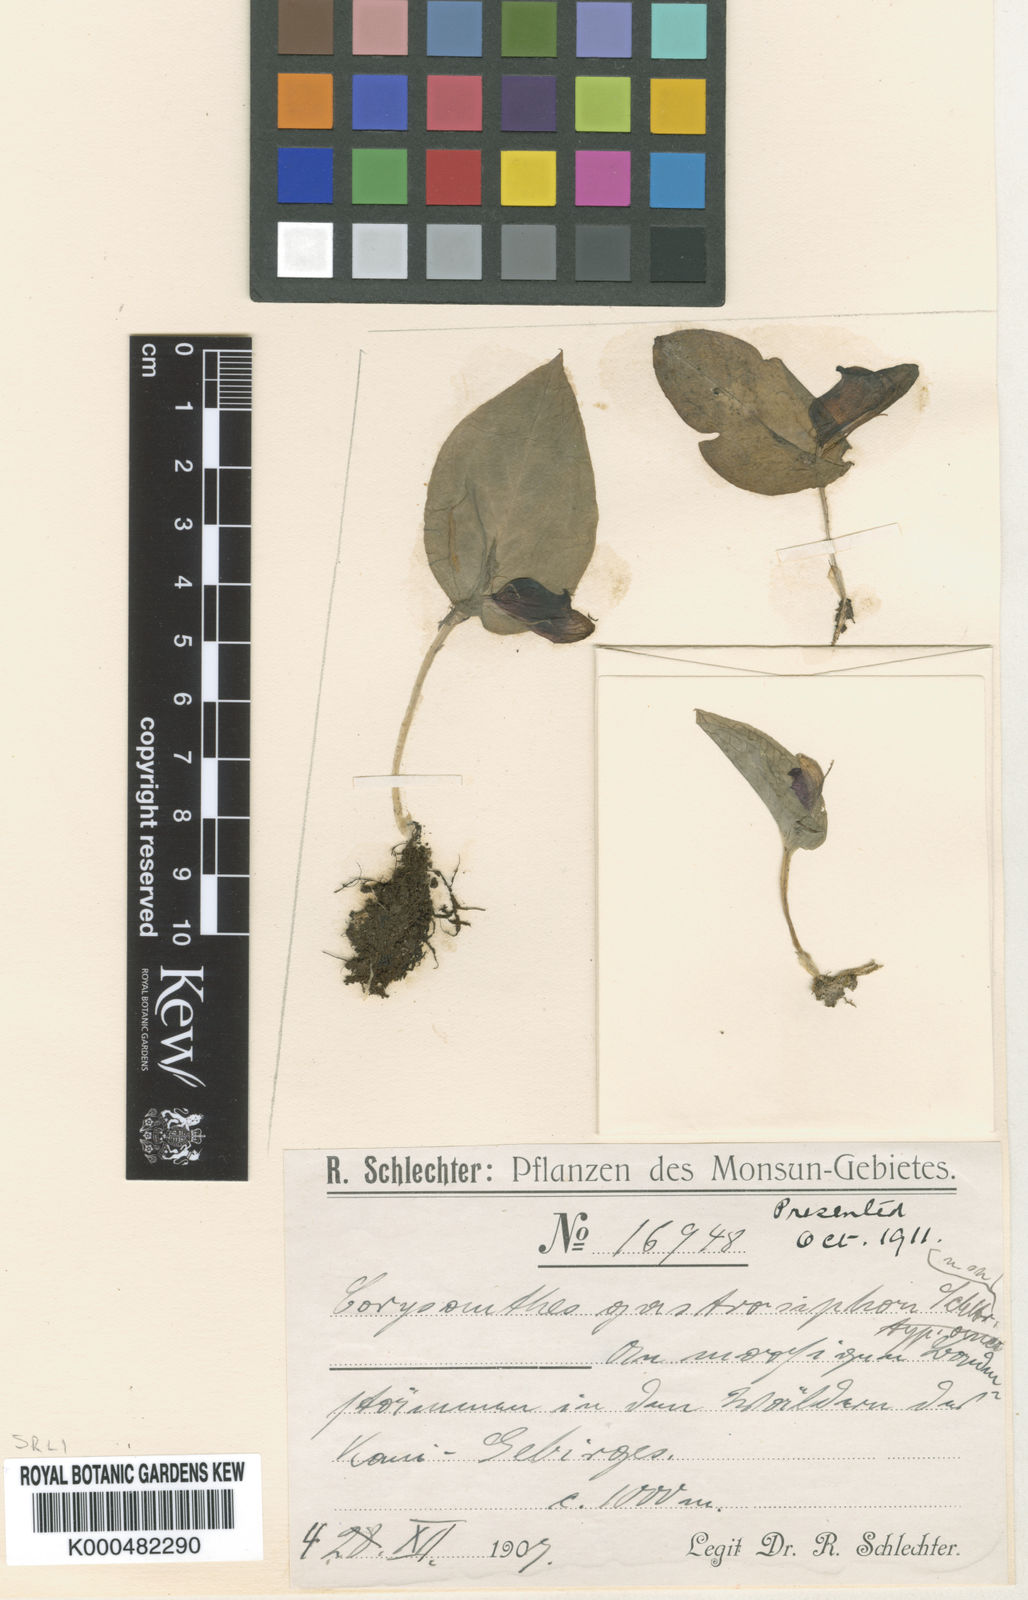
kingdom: Plantae
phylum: Tracheophyta
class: Liliopsida
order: Asparagales
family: Orchidaceae
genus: Corybas
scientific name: Corybas gastrosiphon
